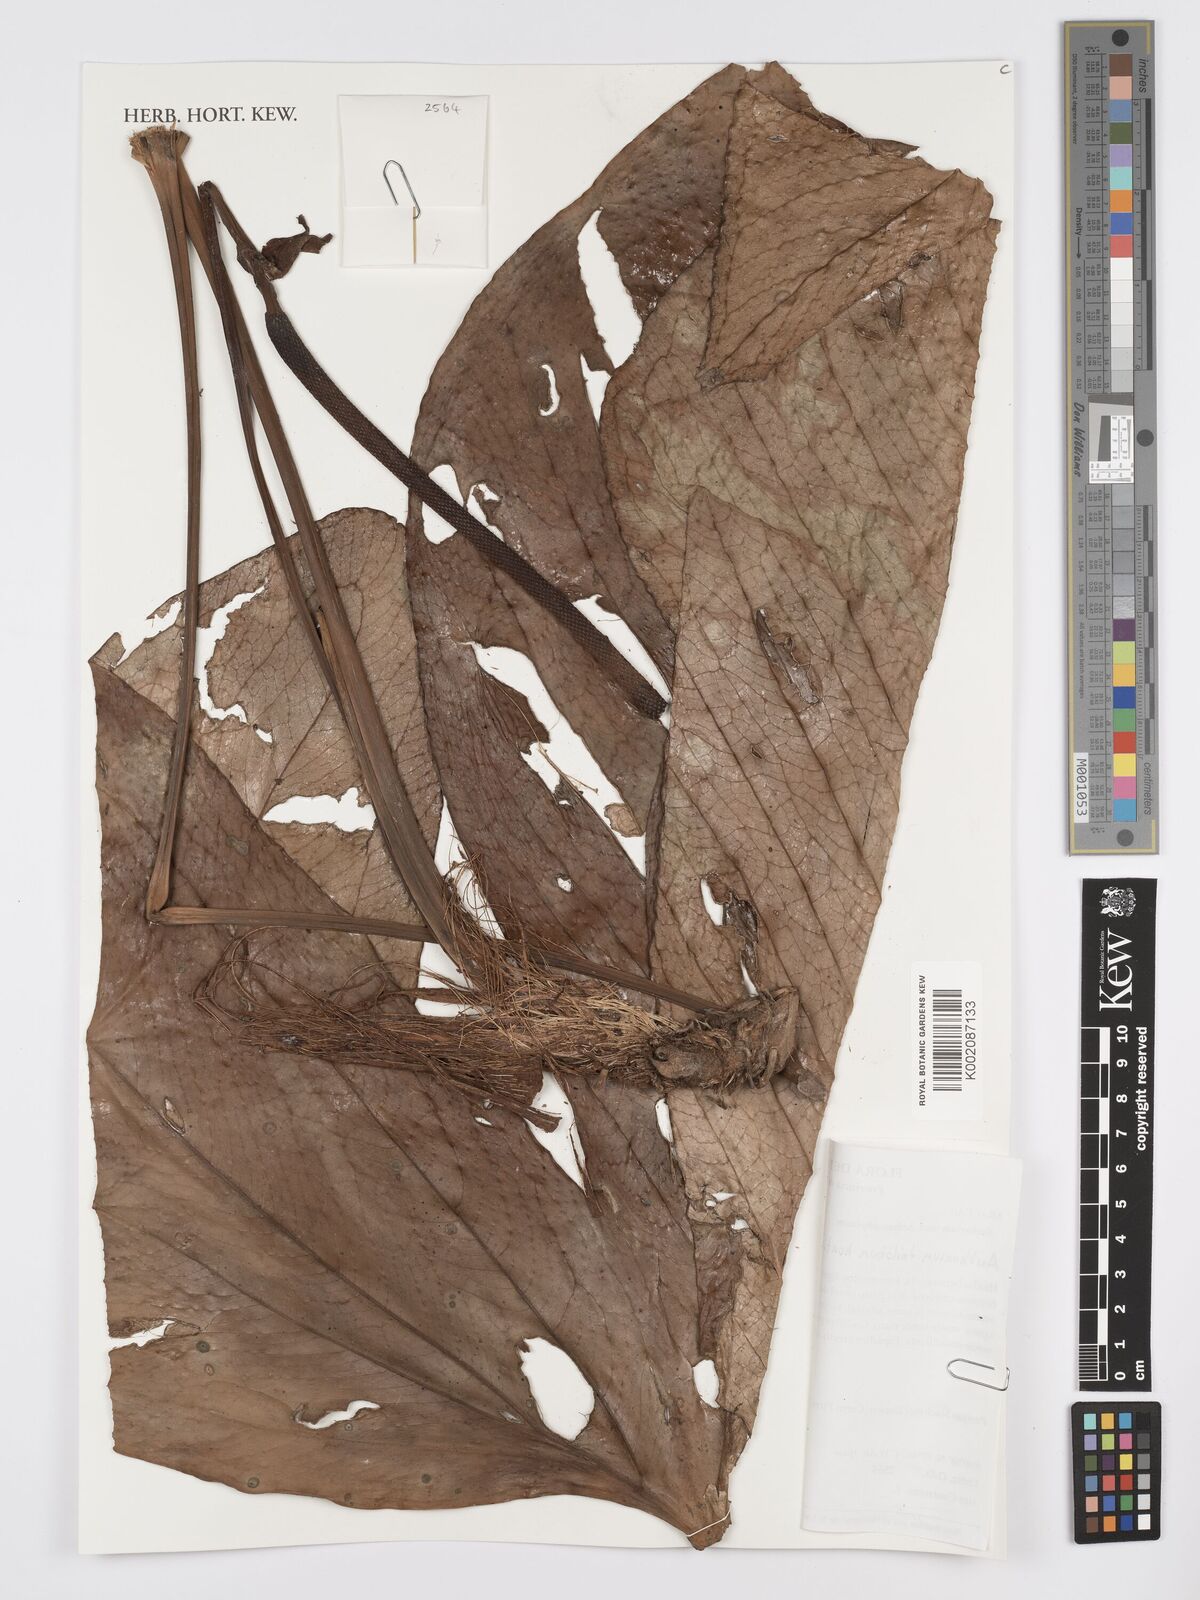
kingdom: Plantae
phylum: Tracheophyta
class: Liliopsida
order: Alismatales
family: Araceae
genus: Anthurium
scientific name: Anthurium trilobum
